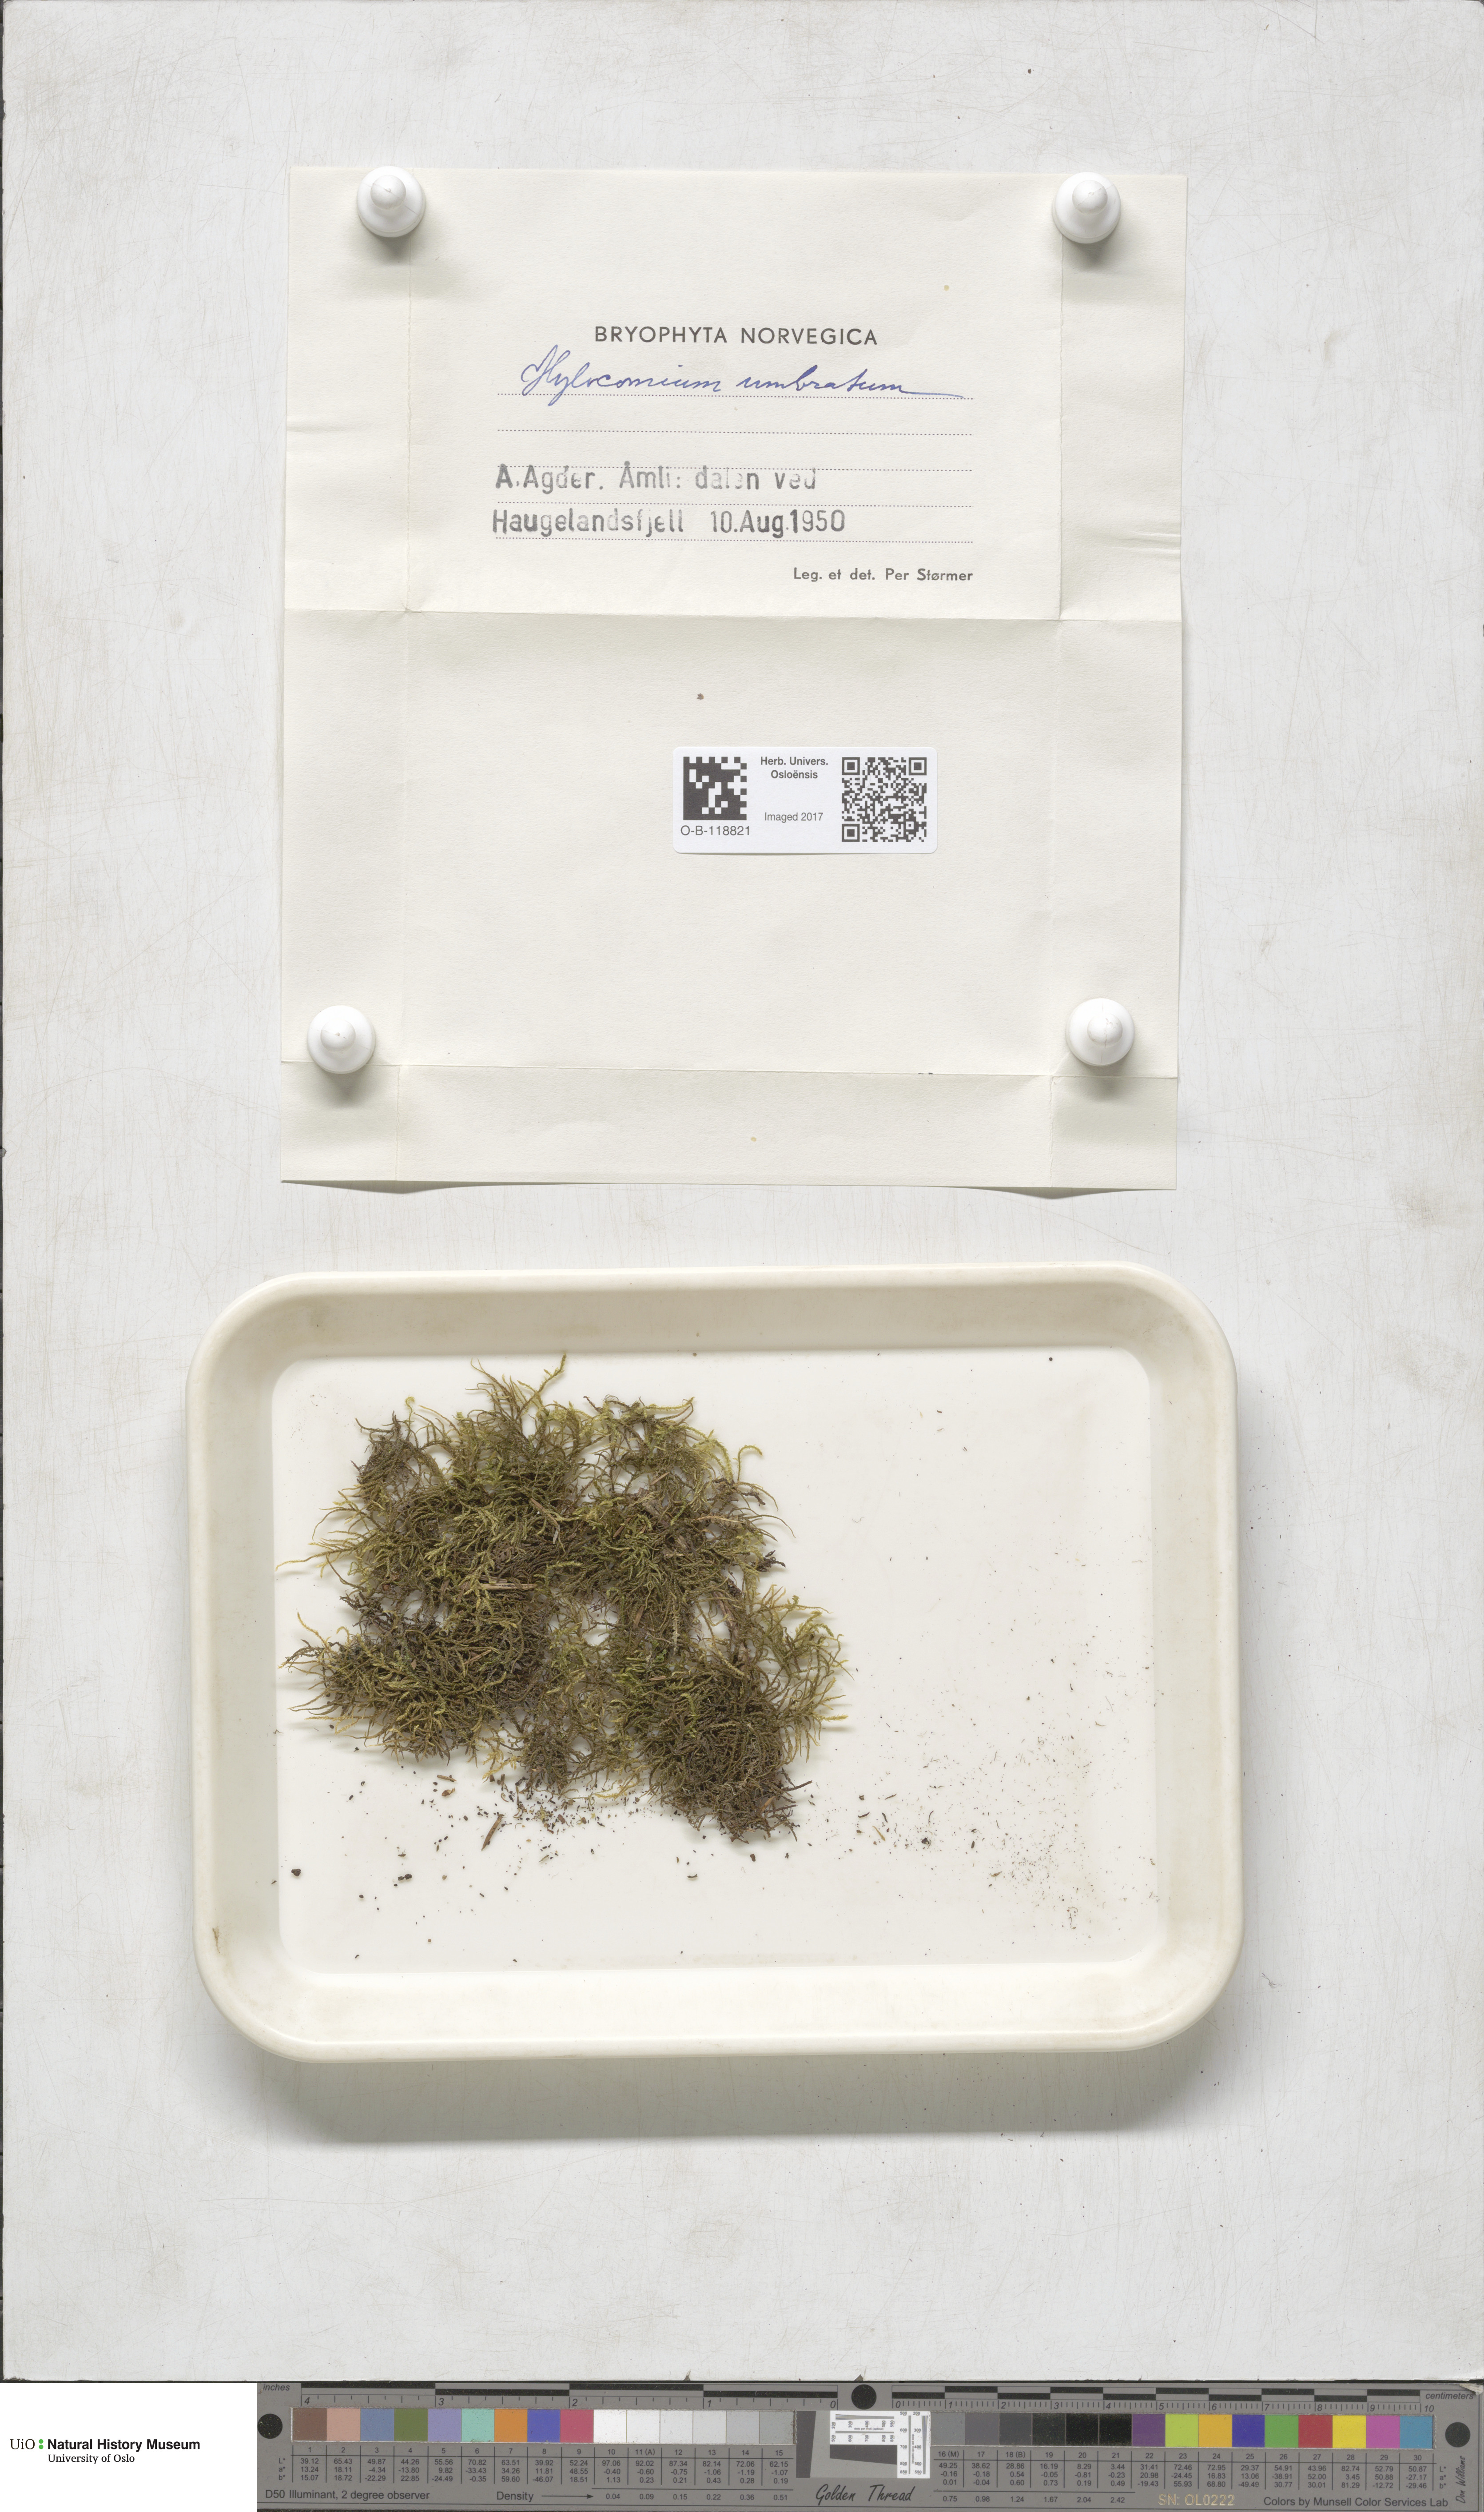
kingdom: Plantae
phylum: Bryophyta
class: Bryopsida
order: Hypnales
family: Hylocomiaceae
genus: Hylocomiastrum
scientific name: Hylocomiastrum umbratum
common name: Shaded woods moss
